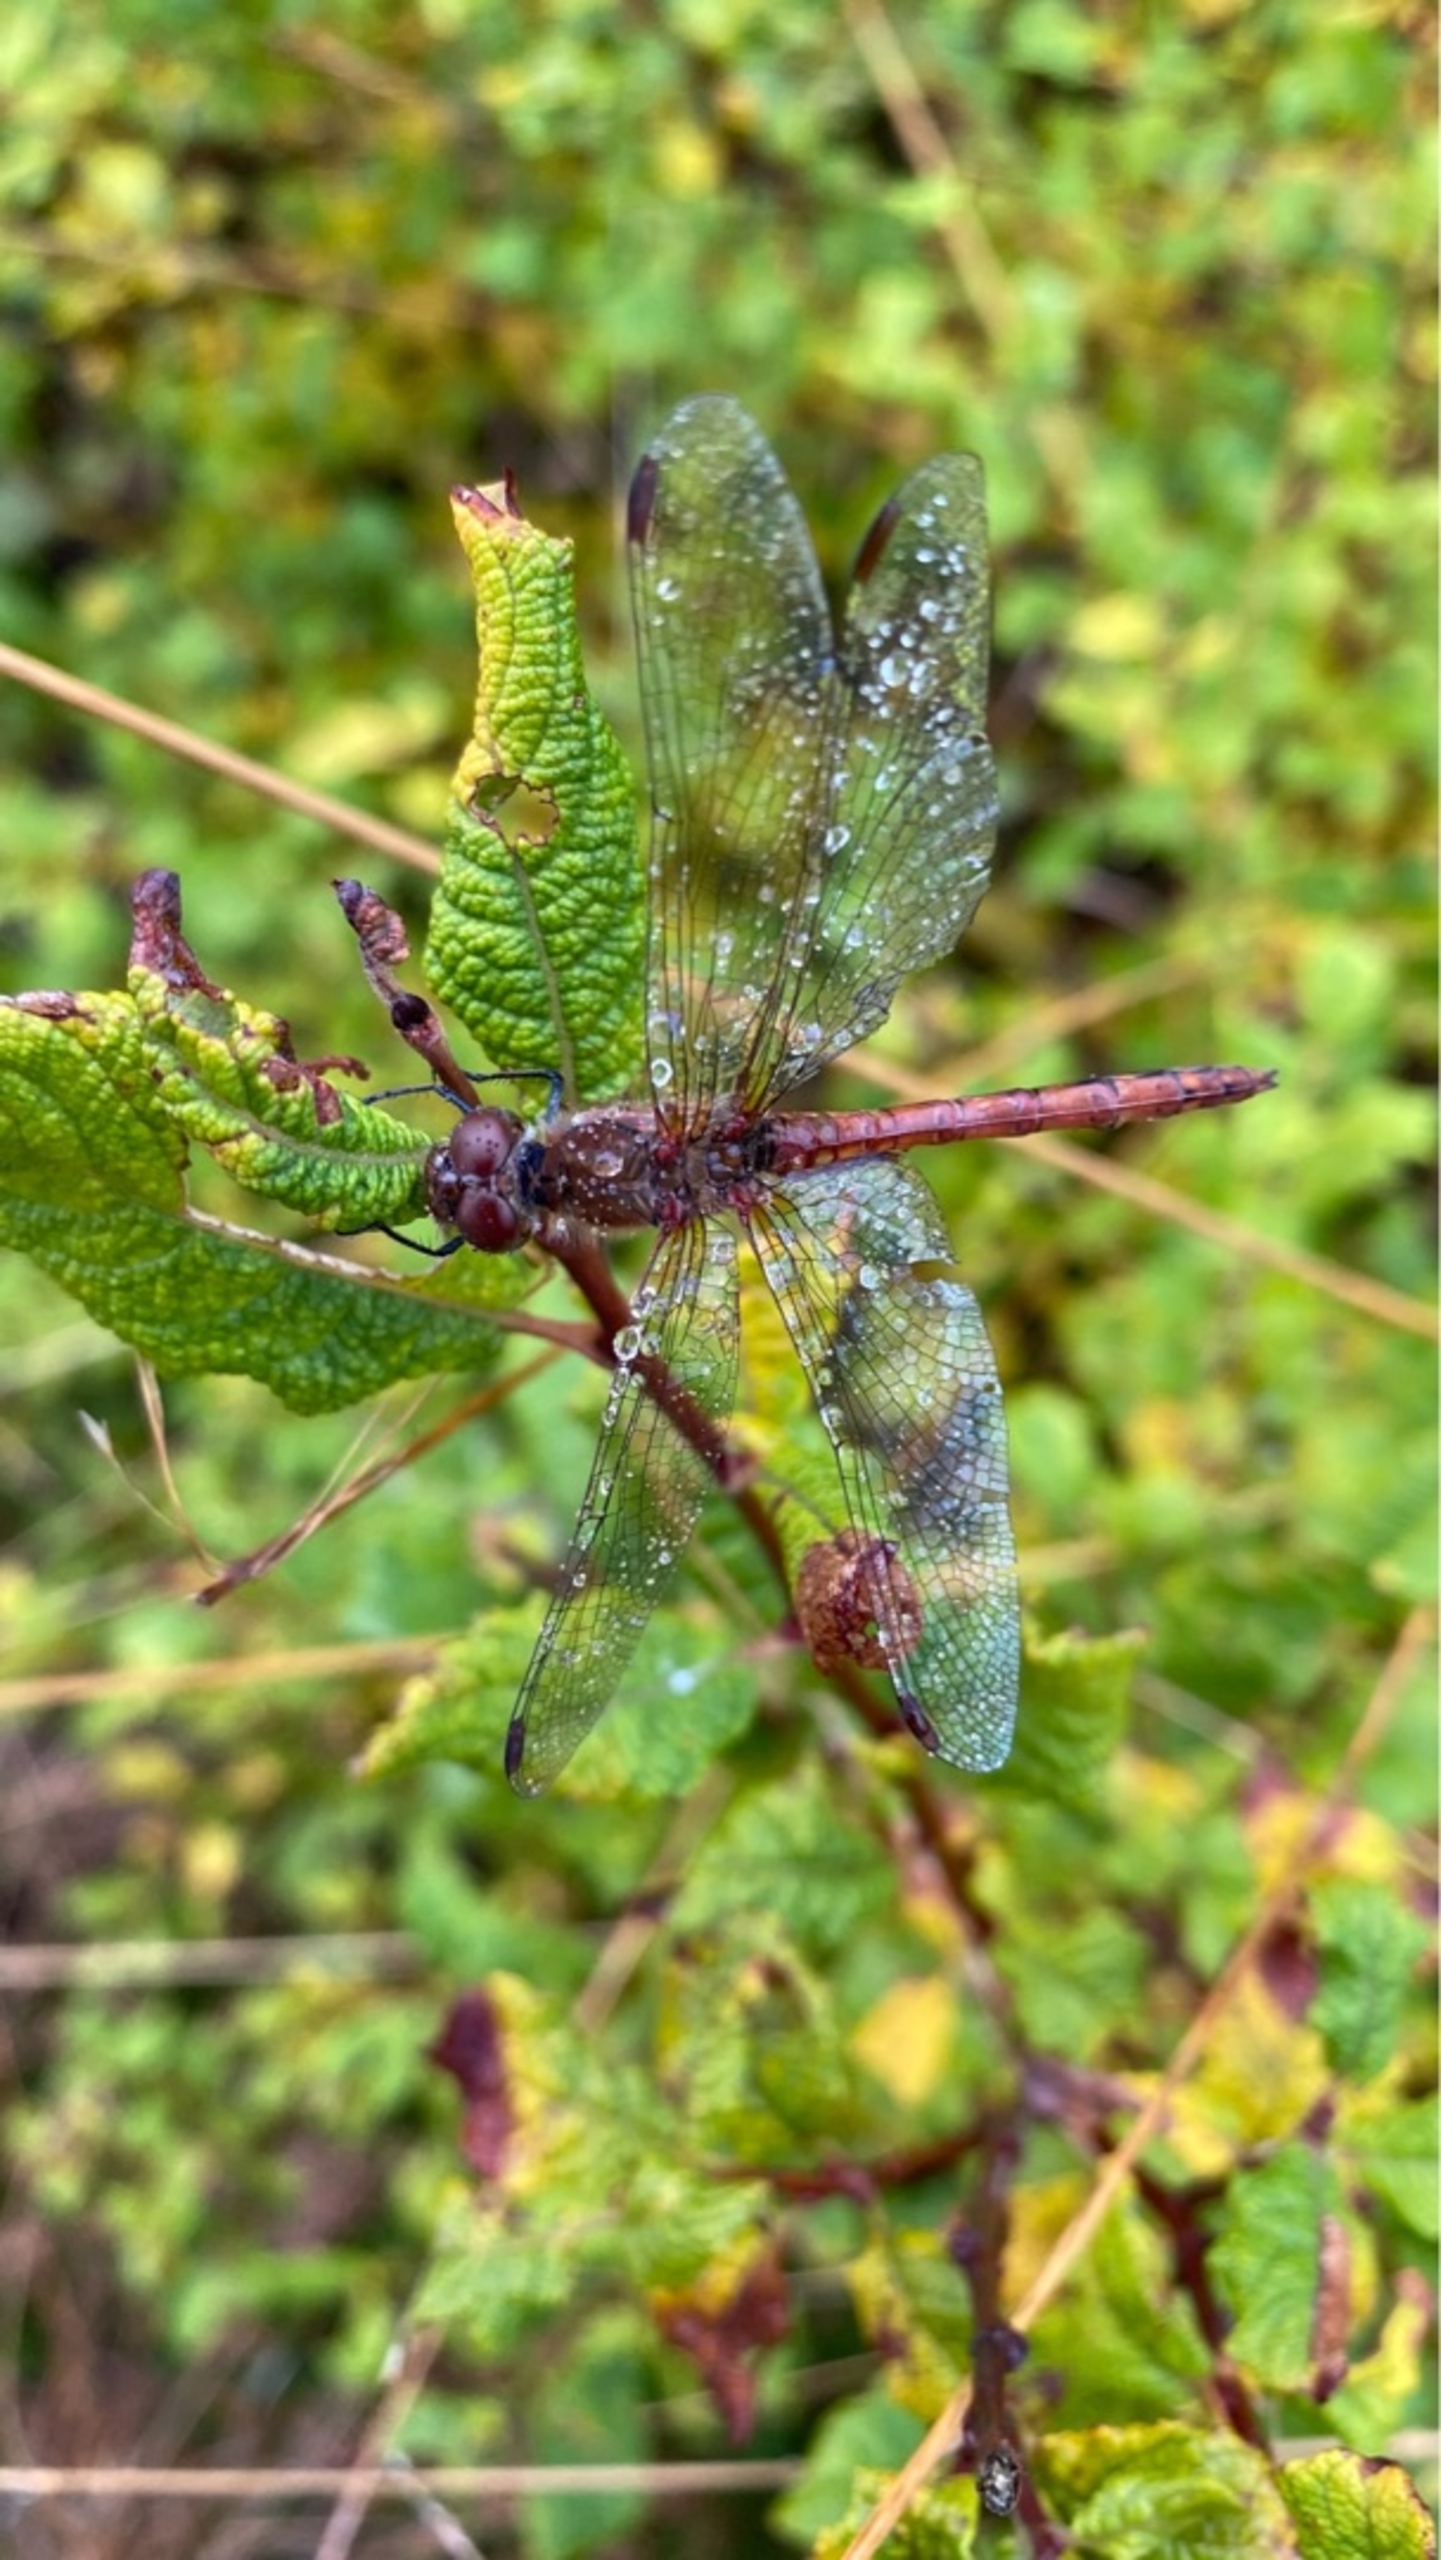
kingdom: Animalia
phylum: Arthropoda
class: Insecta
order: Odonata
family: Libellulidae
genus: Sympetrum
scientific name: Sympetrum striolatum
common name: Stor hedelibel
